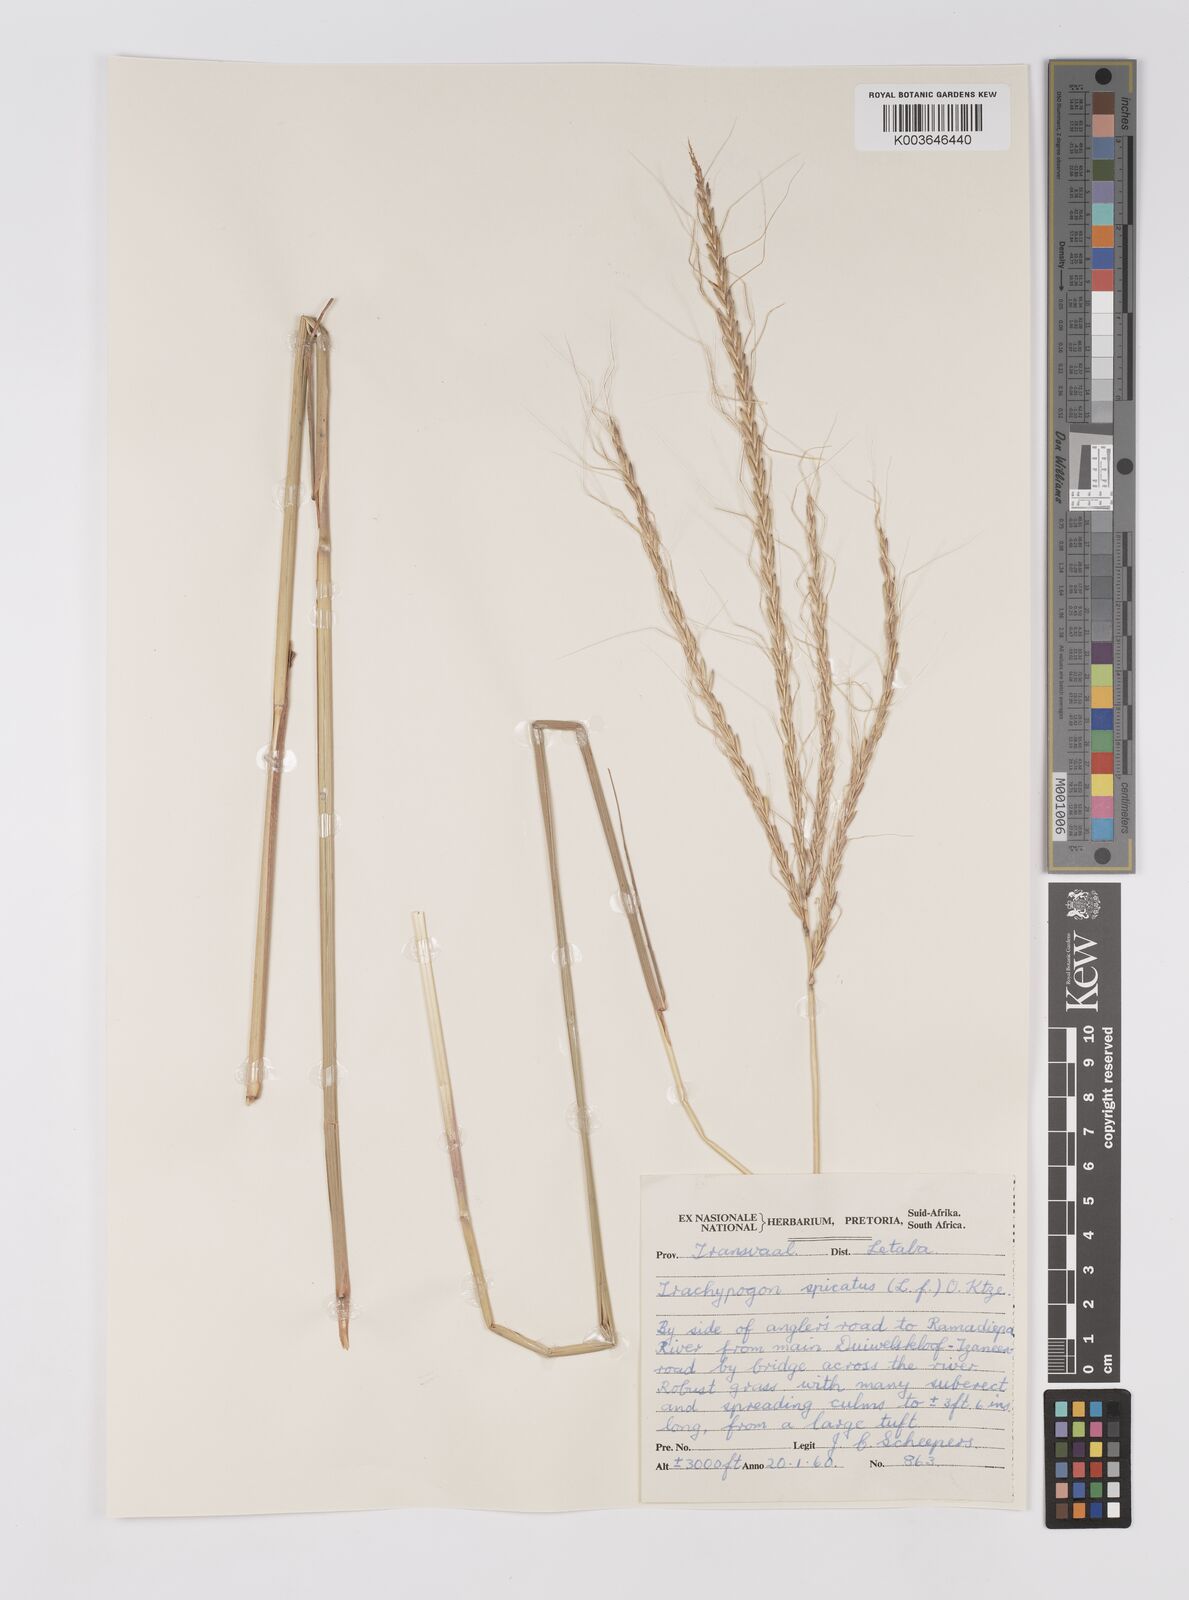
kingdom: Plantae
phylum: Tracheophyta
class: Liliopsida
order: Poales
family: Poaceae
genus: Trachypogon
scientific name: Trachypogon spicatus
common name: Crinkle-awn
